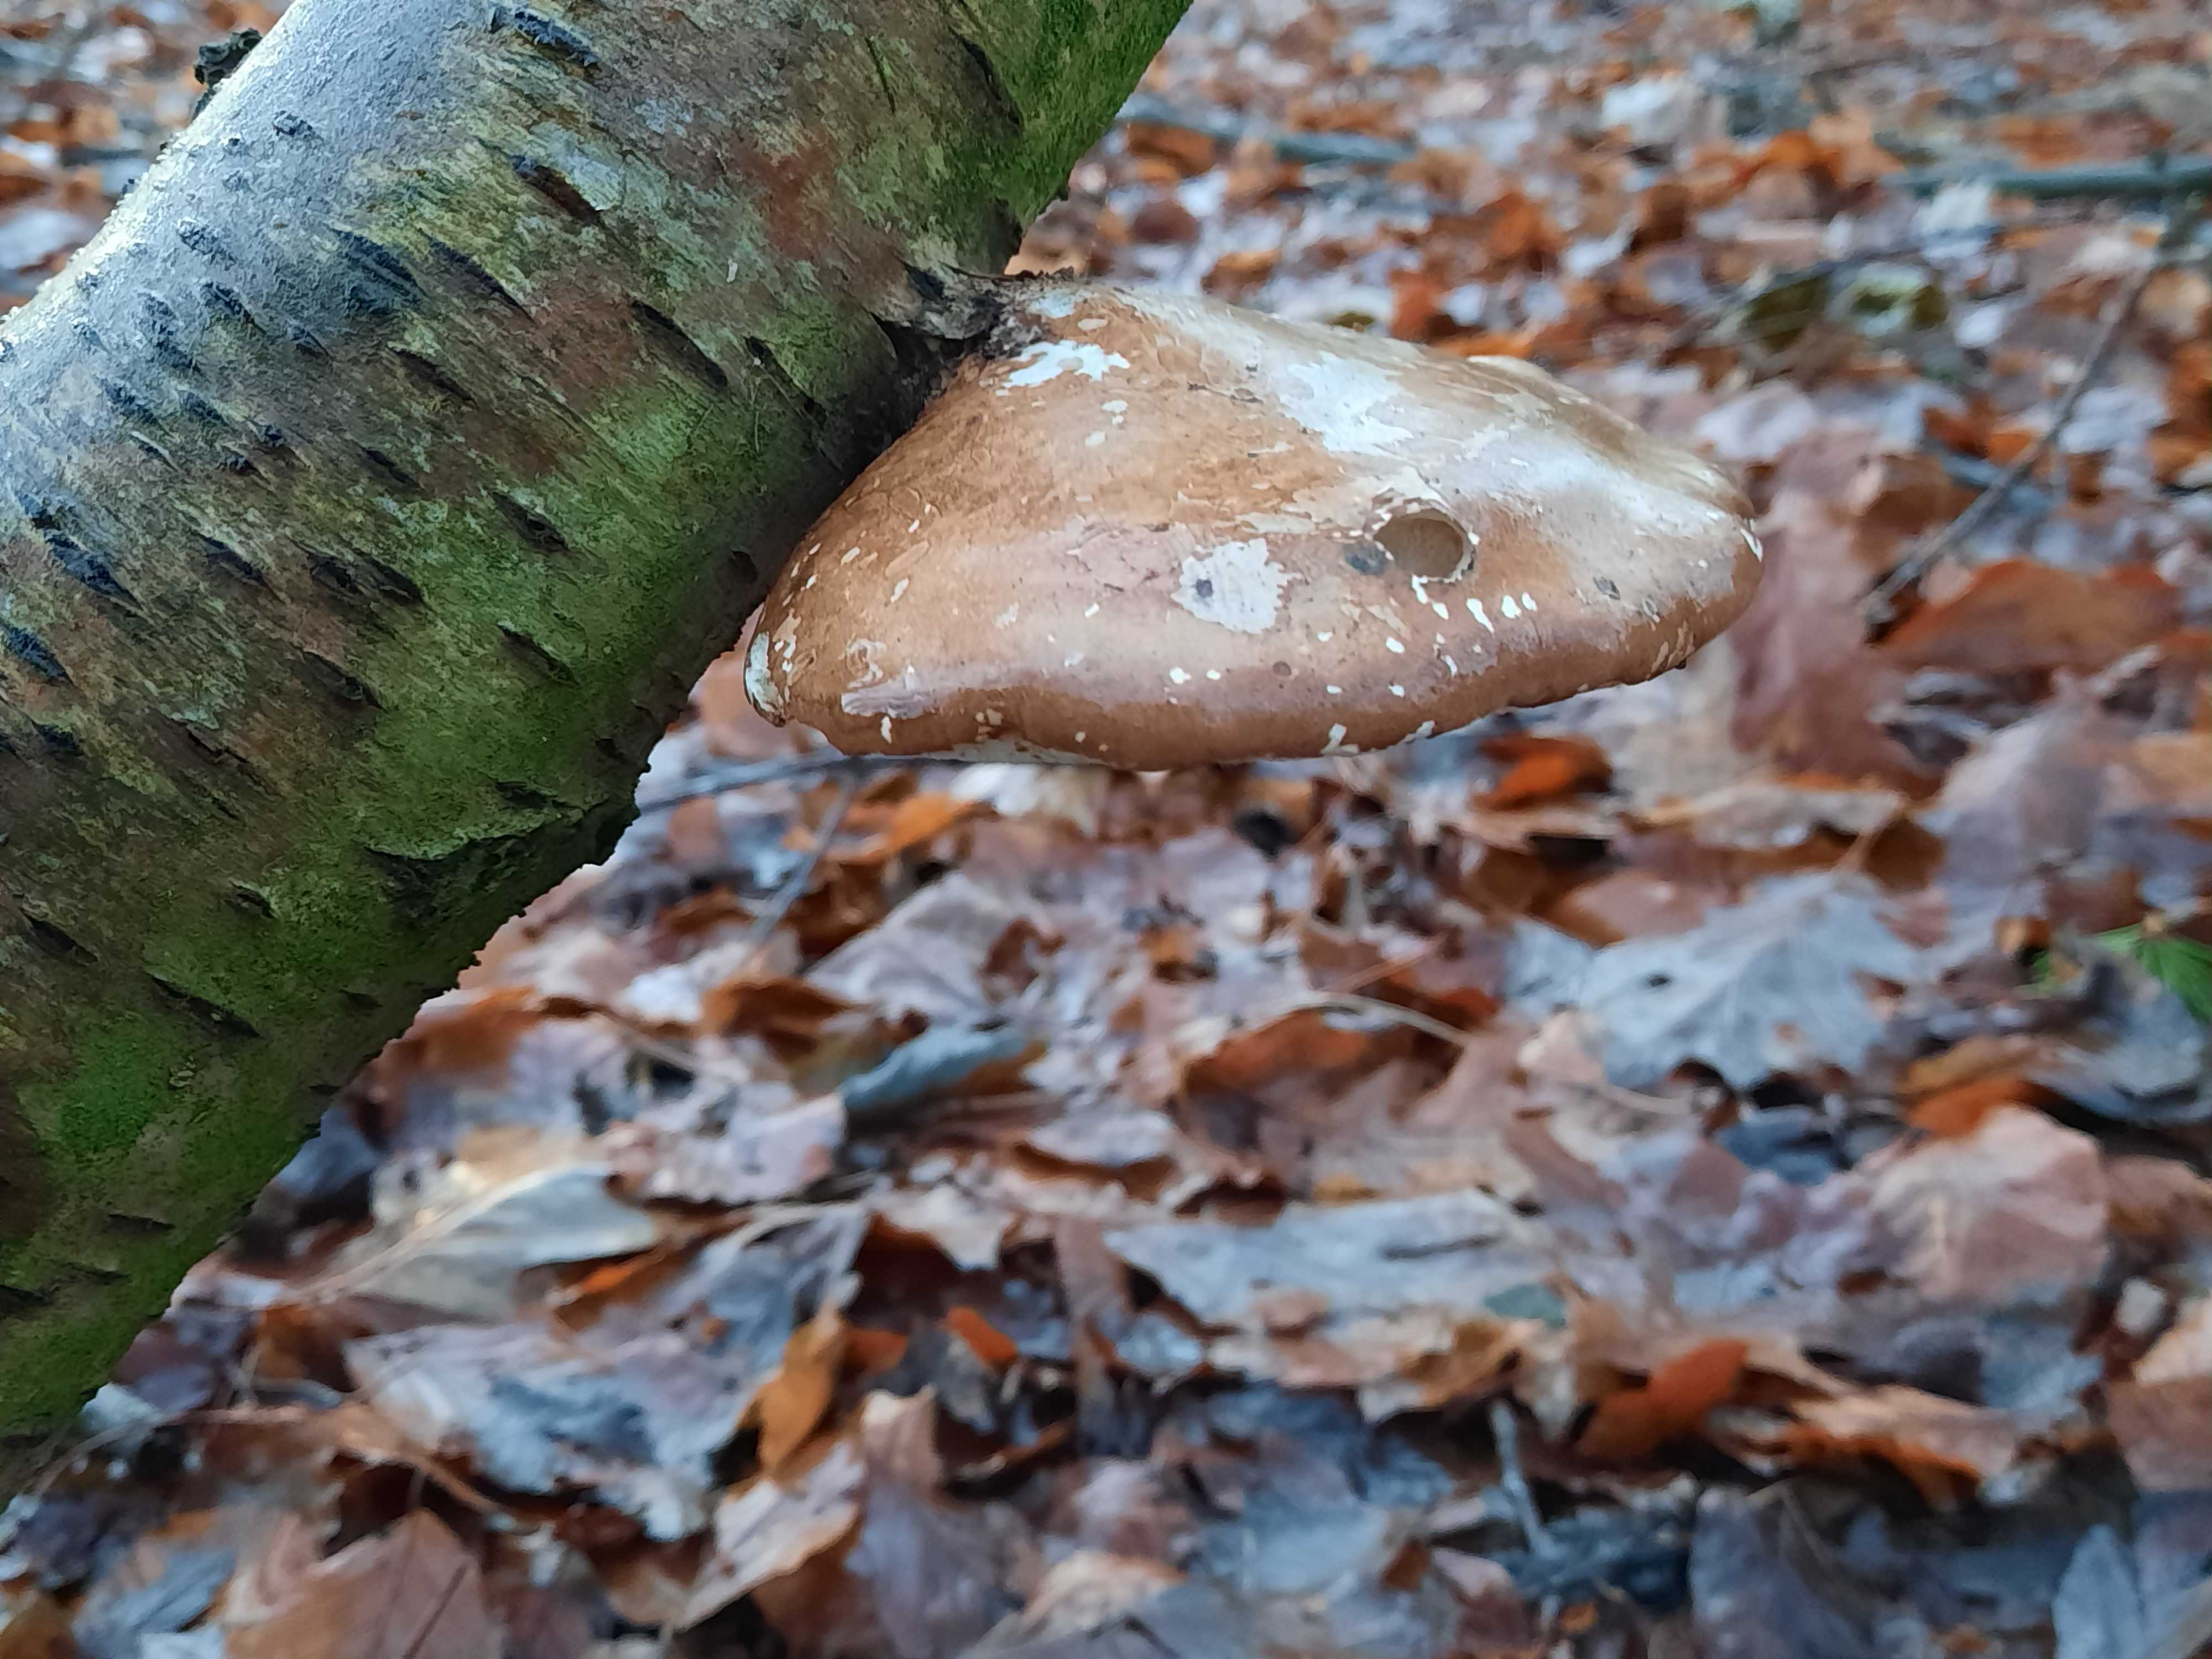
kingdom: Fungi
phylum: Basidiomycota
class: Agaricomycetes
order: Polyporales
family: Fomitopsidaceae
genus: Fomitopsis
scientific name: Fomitopsis betulina
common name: birkeporesvamp
